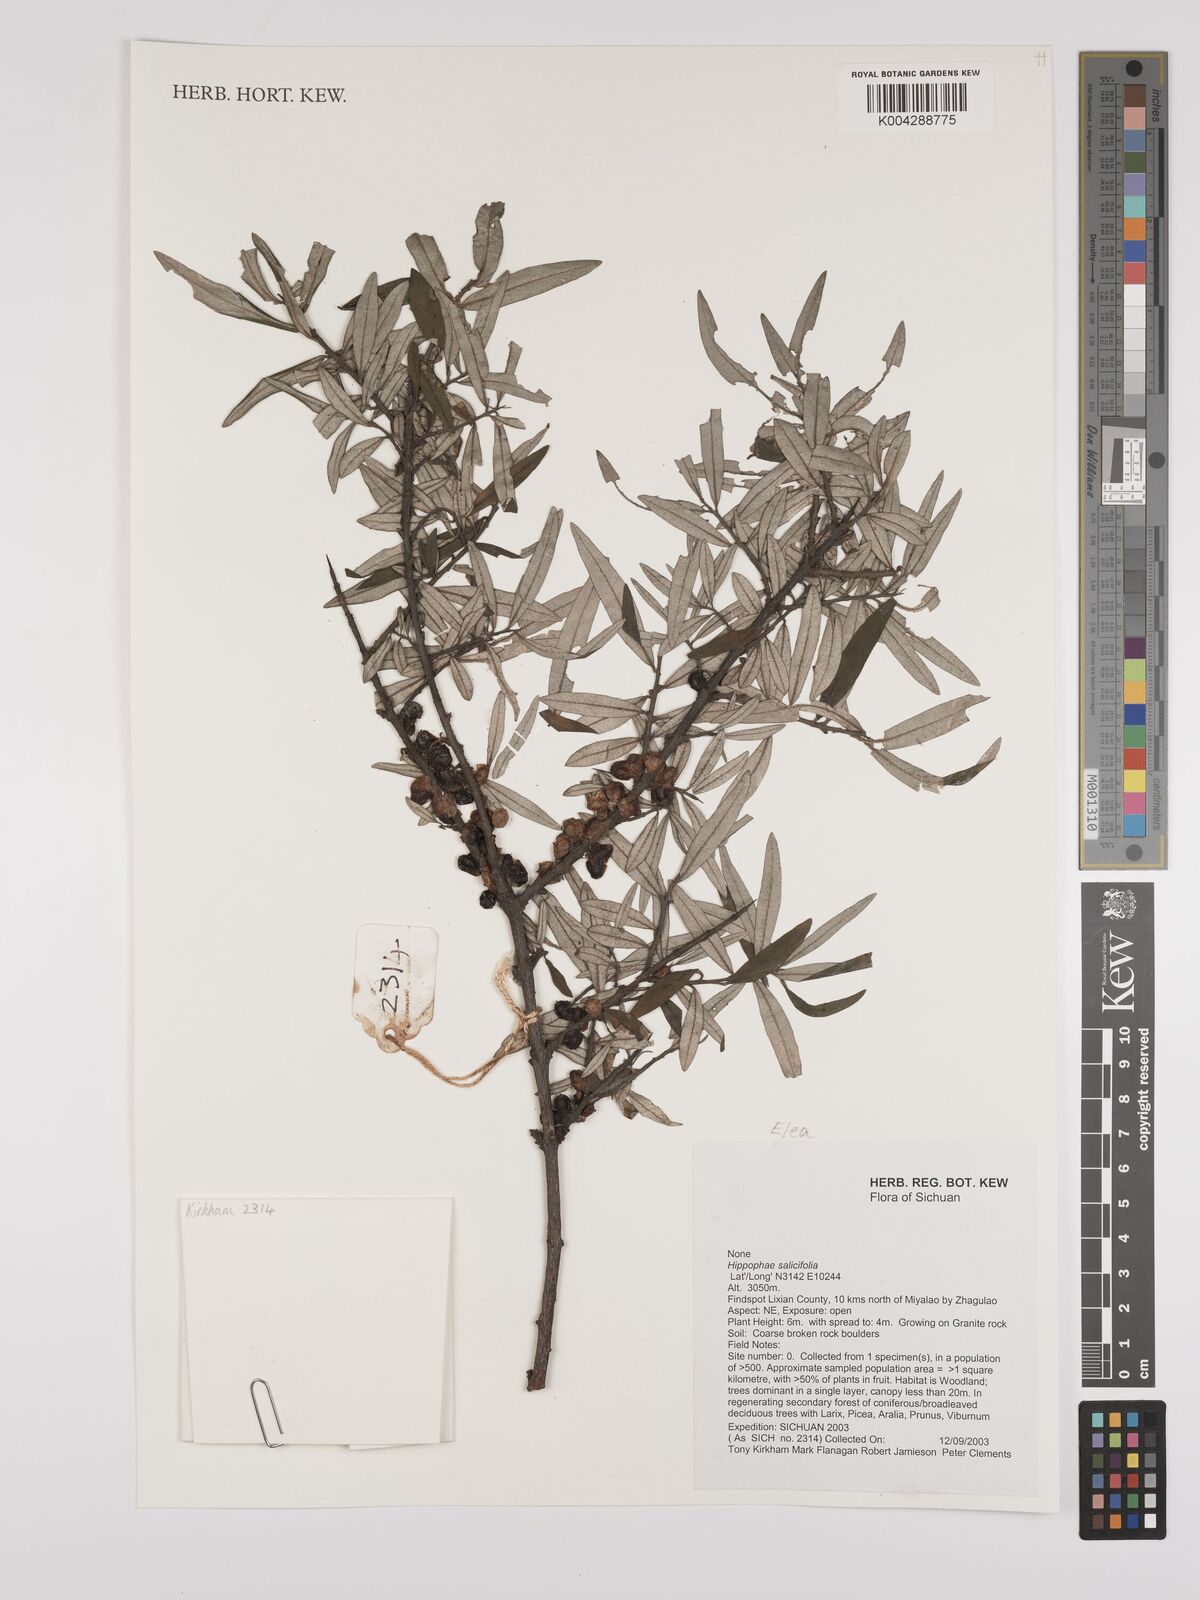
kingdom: Plantae
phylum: Tracheophyta
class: Magnoliopsida
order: Rosales
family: Elaeagnaceae
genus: Hippophae
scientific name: Hippophae salicifolia
